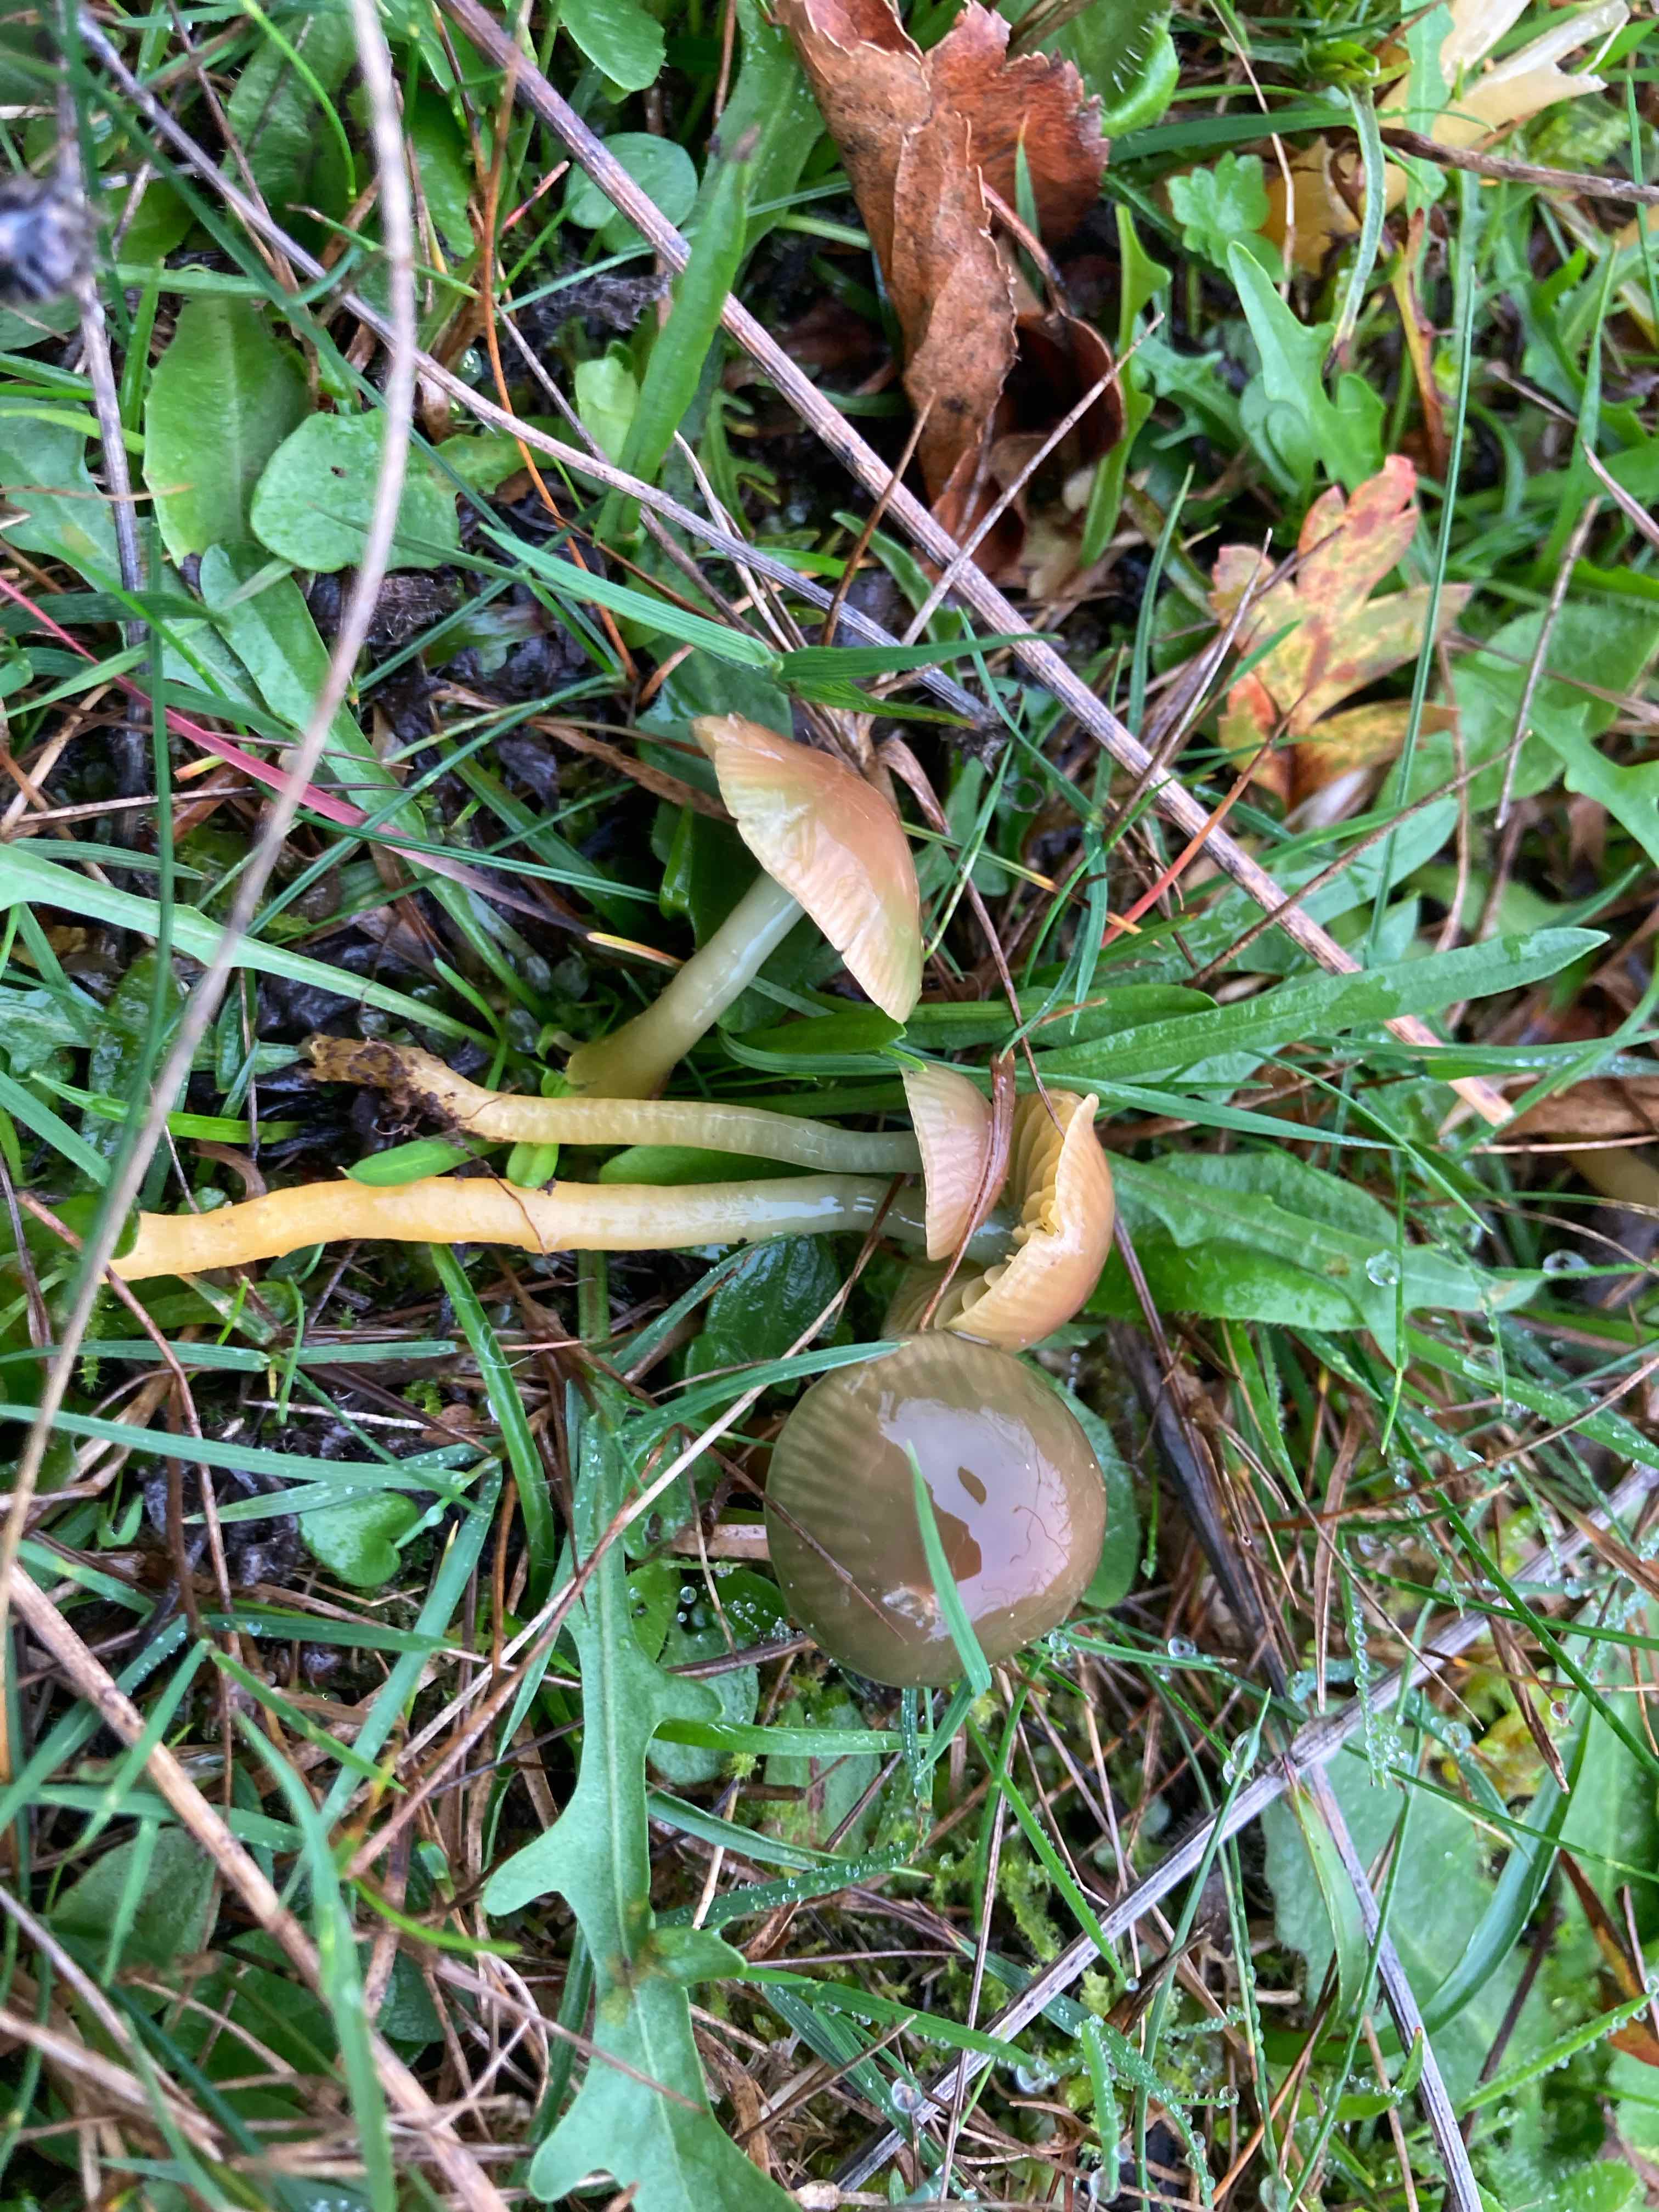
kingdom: Fungi
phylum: Basidiomycota
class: Agaricomycetes
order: Agaricales
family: Hygrophoraceae
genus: Gliophorus
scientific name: Gliophorus psittacinus
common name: papegøje-vokshat
